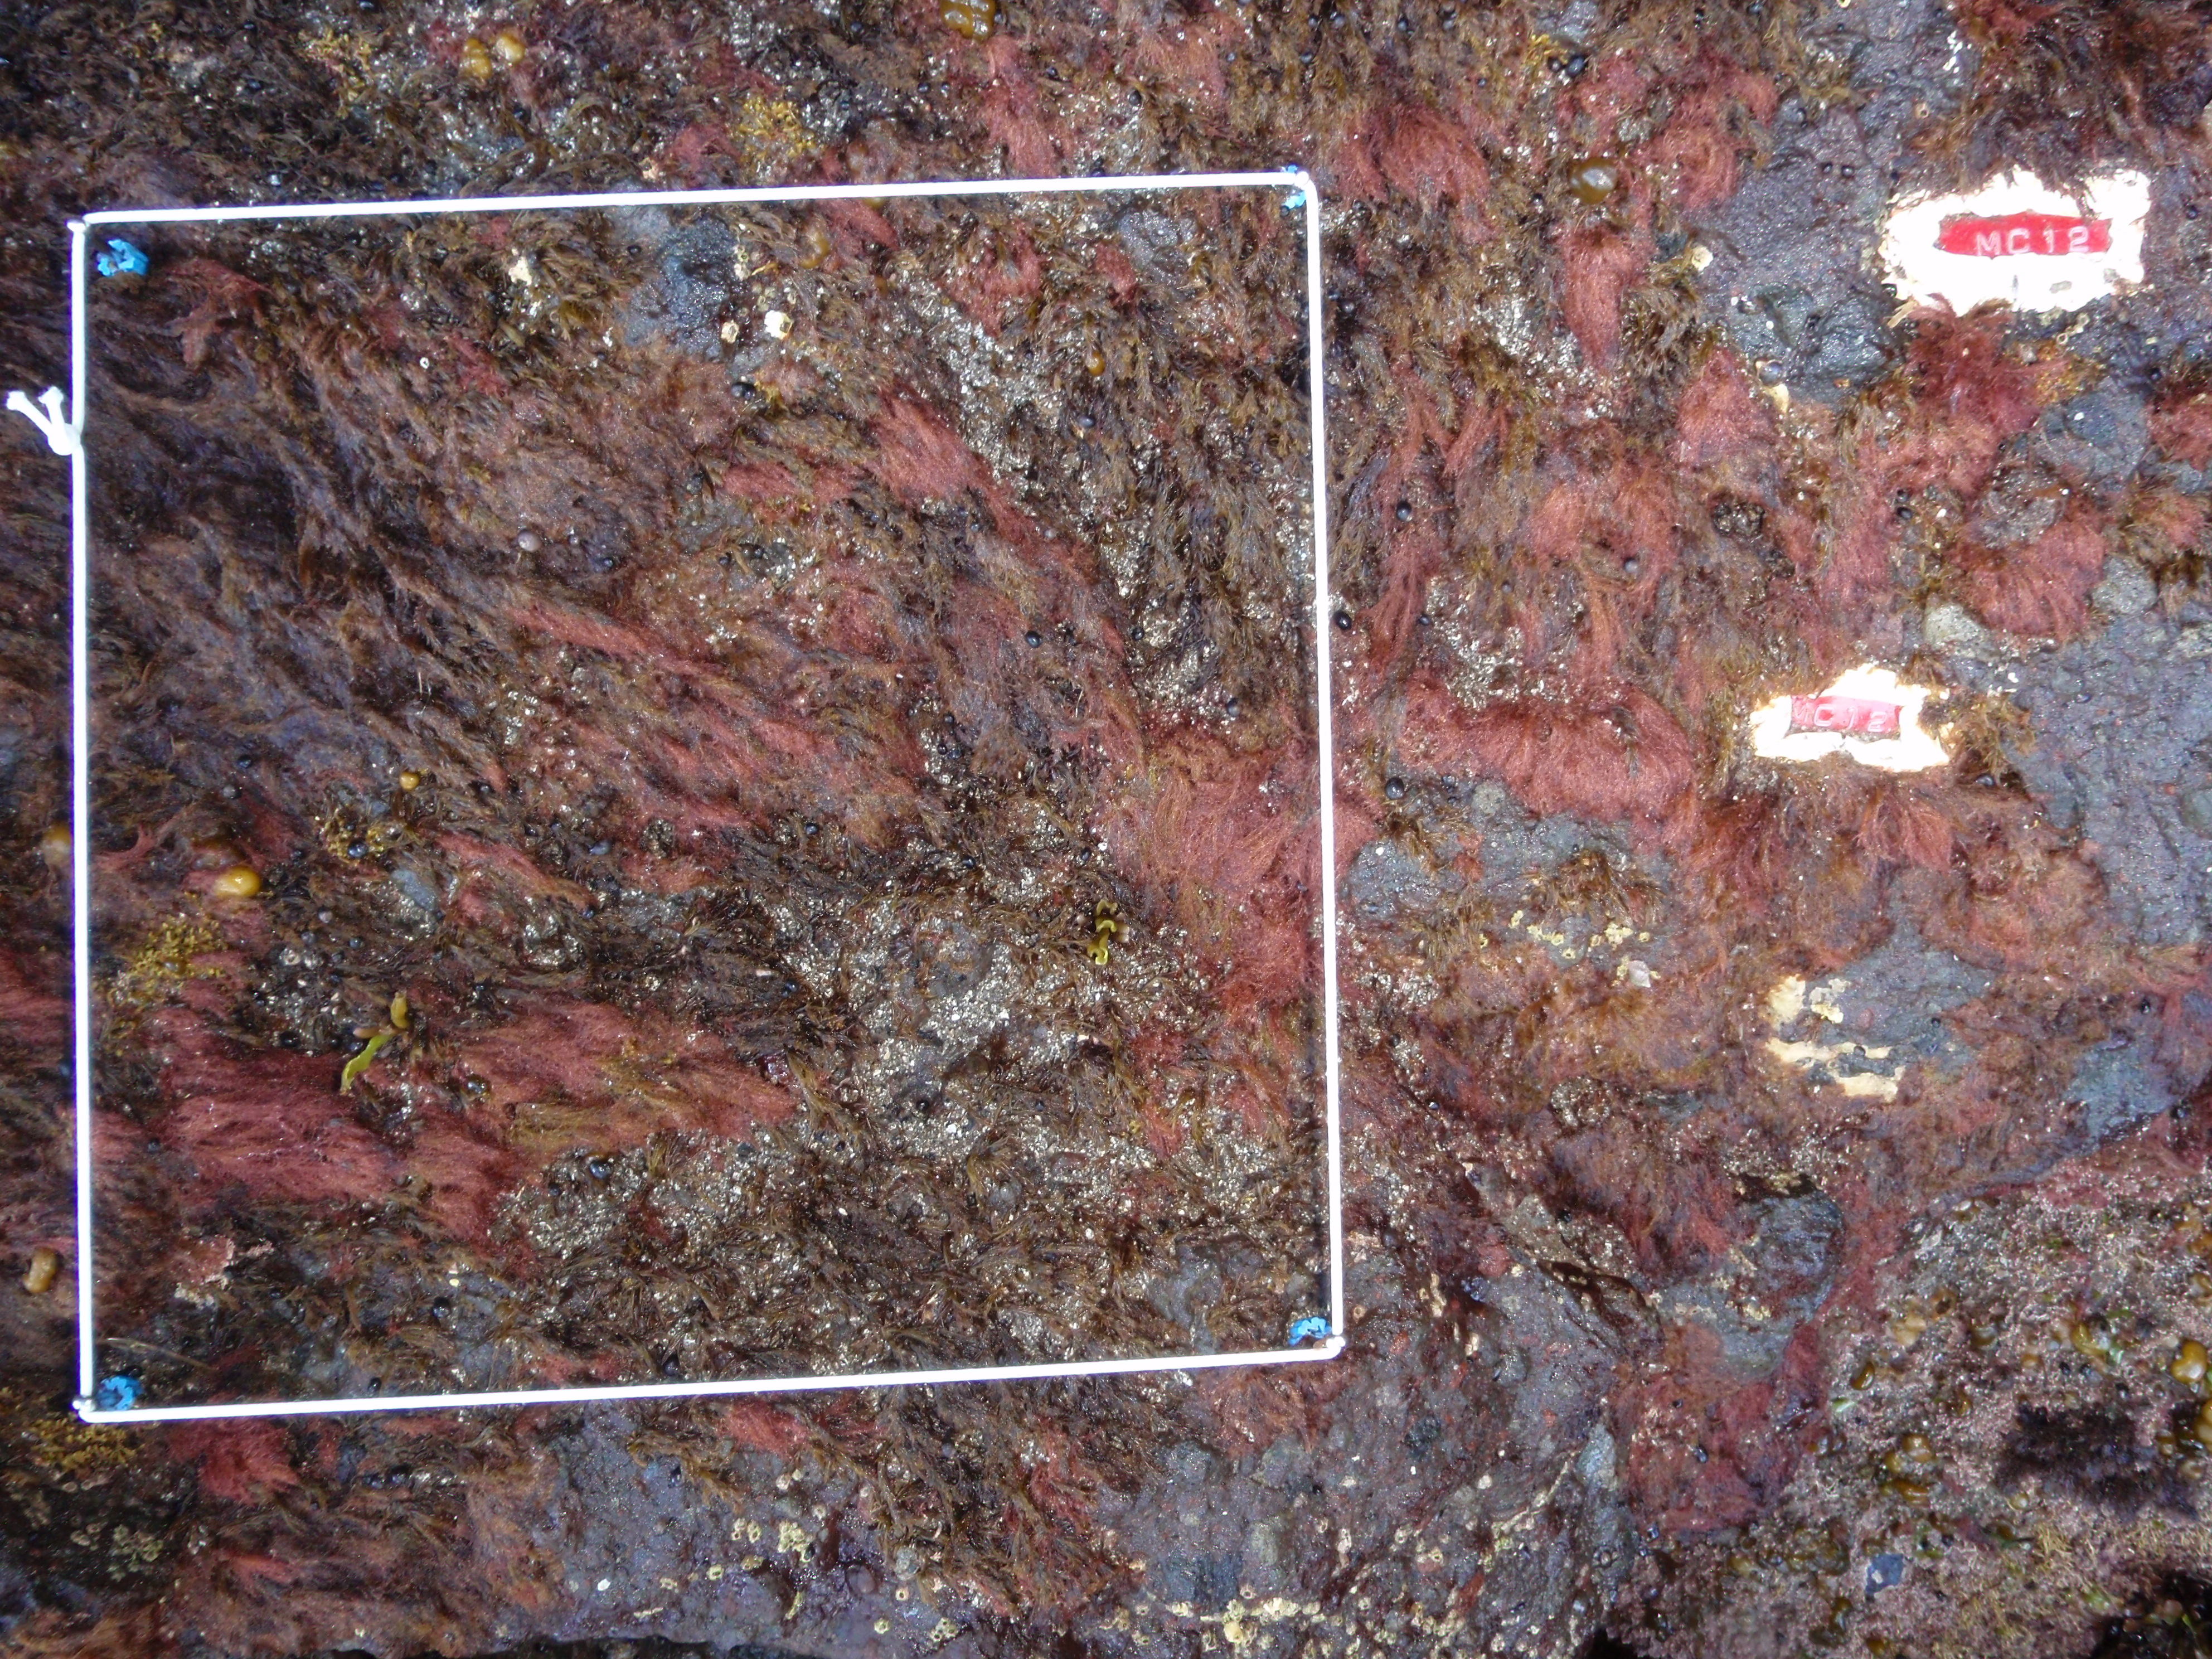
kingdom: Plantae
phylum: Rhodophyta
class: Florideophyceae
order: Corallinales
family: Corallinaceae
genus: Corallina
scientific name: Corallina pilulifera
